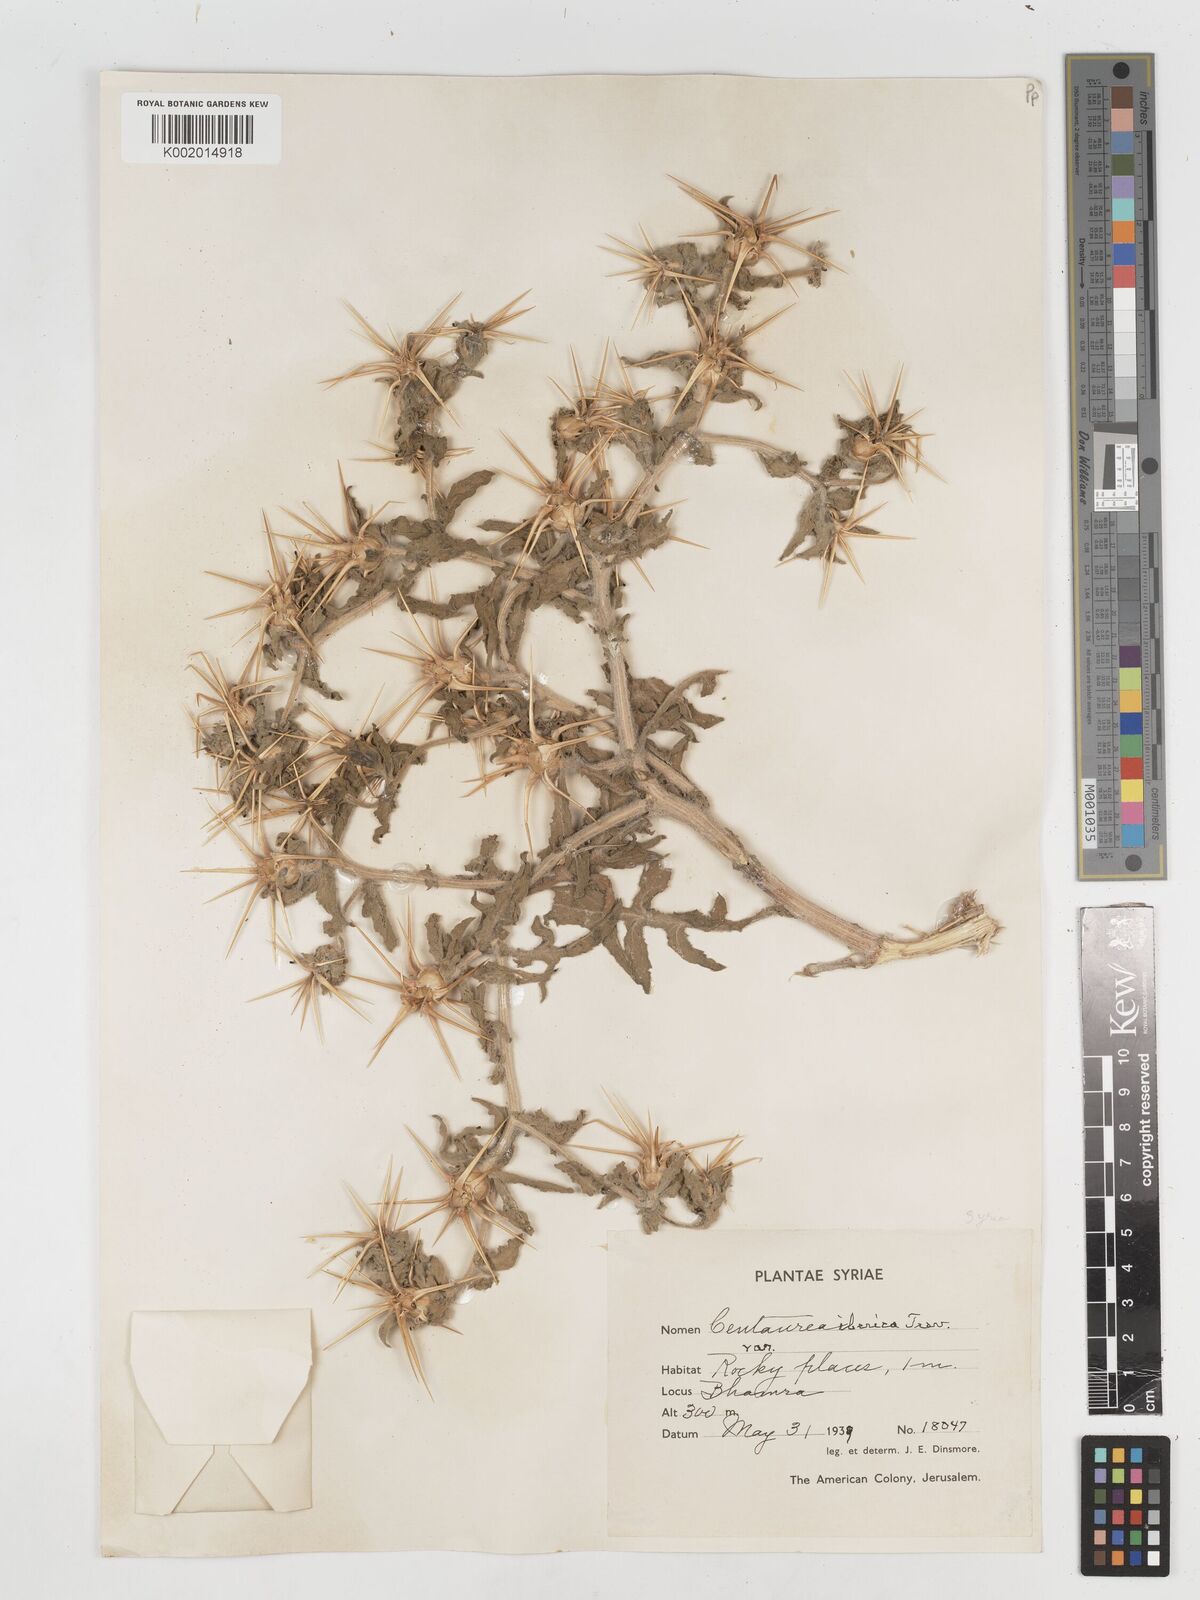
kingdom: Plantae
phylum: Tracheophyta
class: Magnoliopsida
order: Asterales
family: Asteraceae
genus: Centaurea
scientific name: Centaurea procurrens
